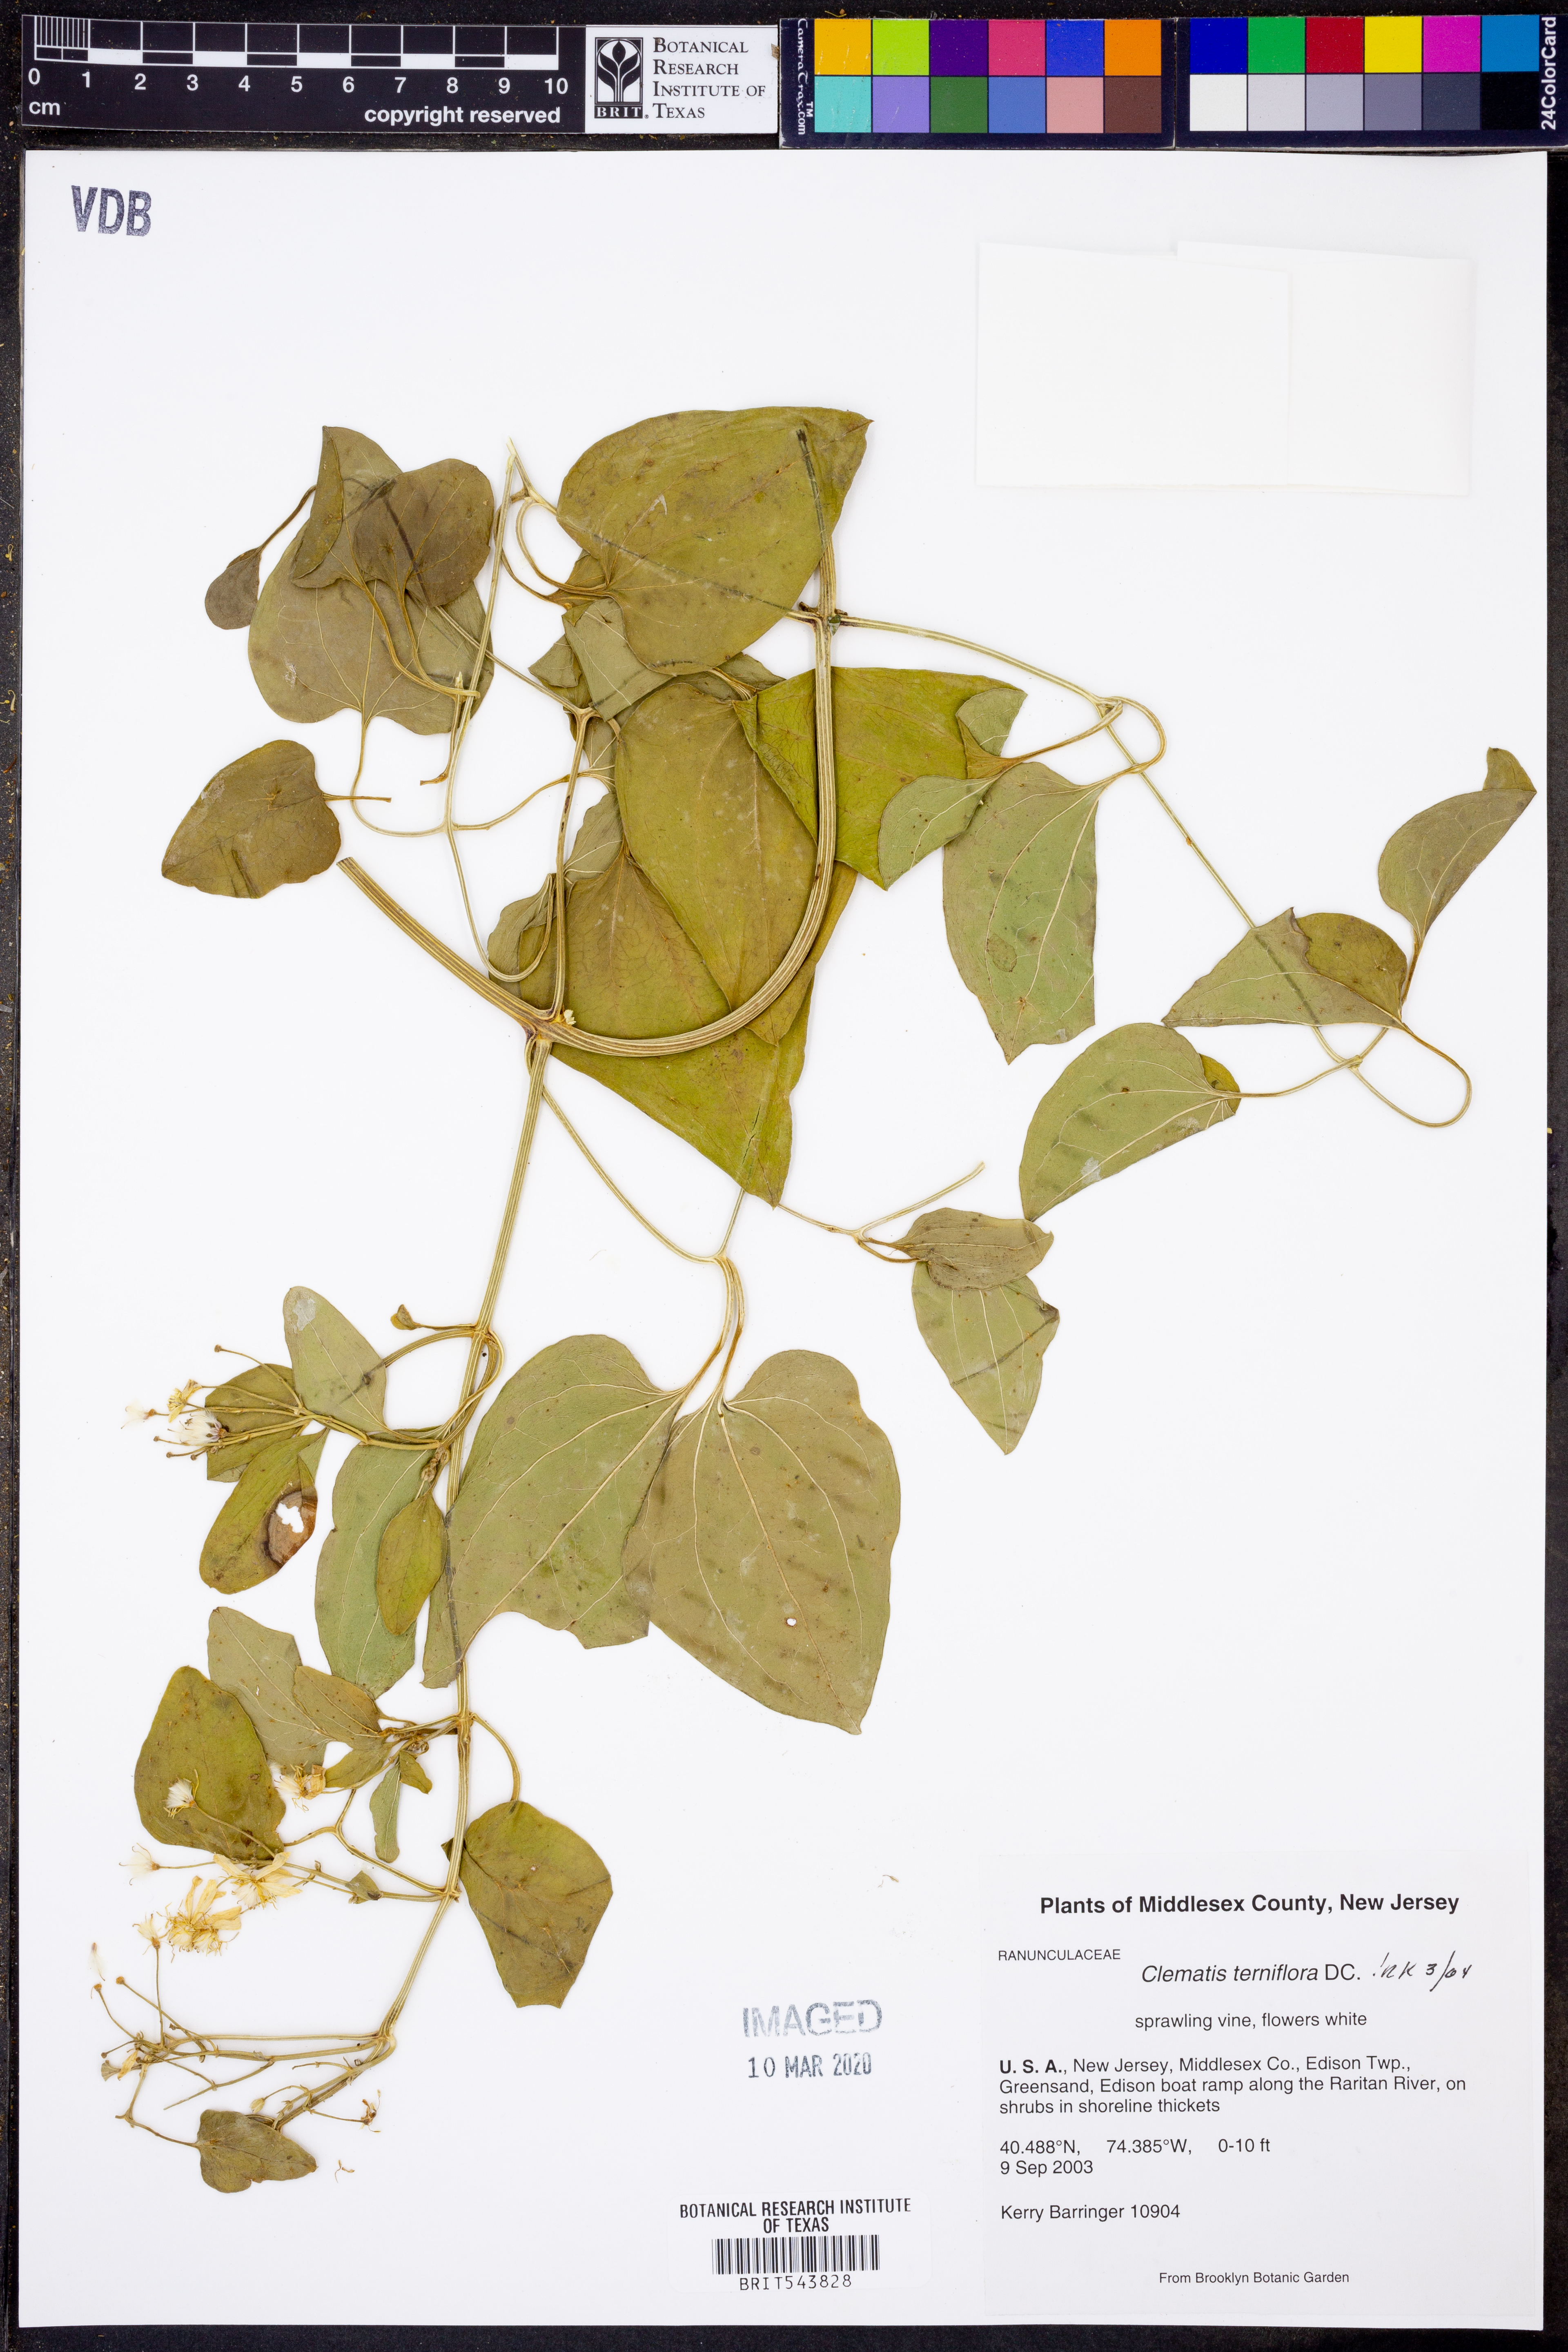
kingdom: Plantae
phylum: Tracheophyta
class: Magnoliopsida
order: Ranunculales
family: Ranunculaceae
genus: Clematis
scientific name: Clematis terniflora
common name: Sweet autumn clematis
